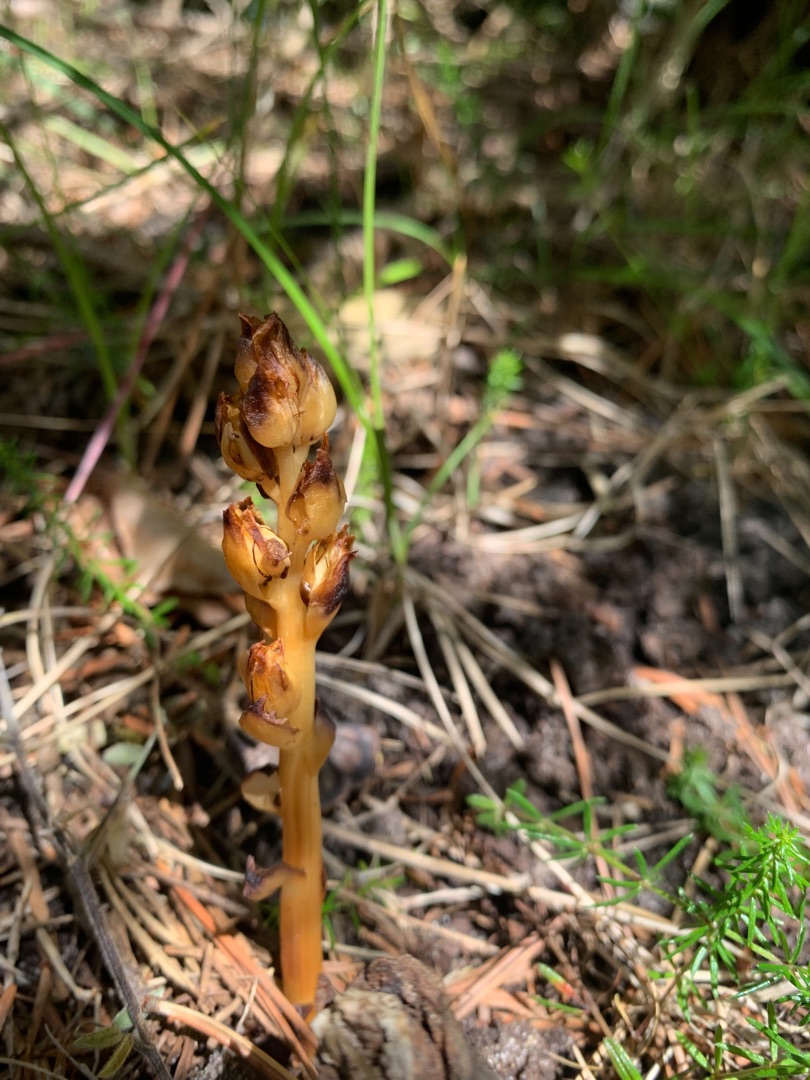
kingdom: Plantae
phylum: Tracheophyta
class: Magnoliopsida
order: Ericales
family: Ericaceae
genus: Hypopitys
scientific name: Hypopitys monotropa
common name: Snylterod
